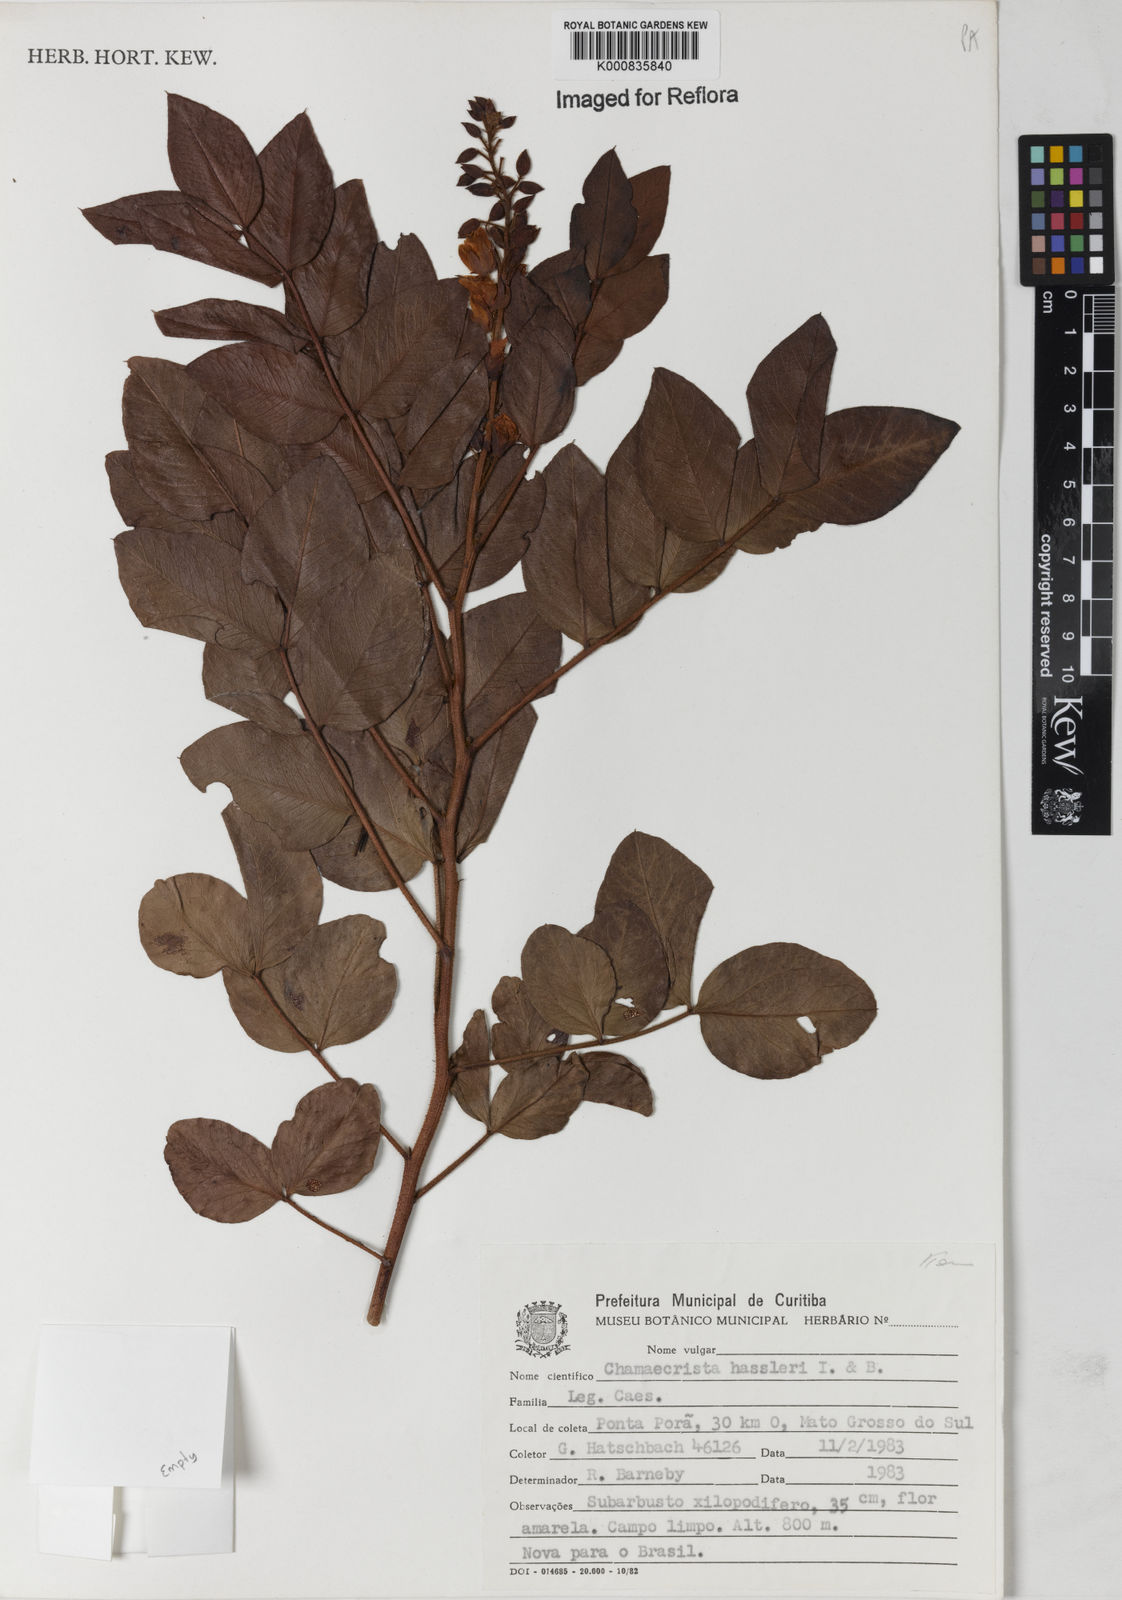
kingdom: Plantae
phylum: Tracheophyta
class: Magnoliopsida
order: Fabales
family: Fabaceae
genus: Chamaecrista
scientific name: Chamaecrista hassleri
